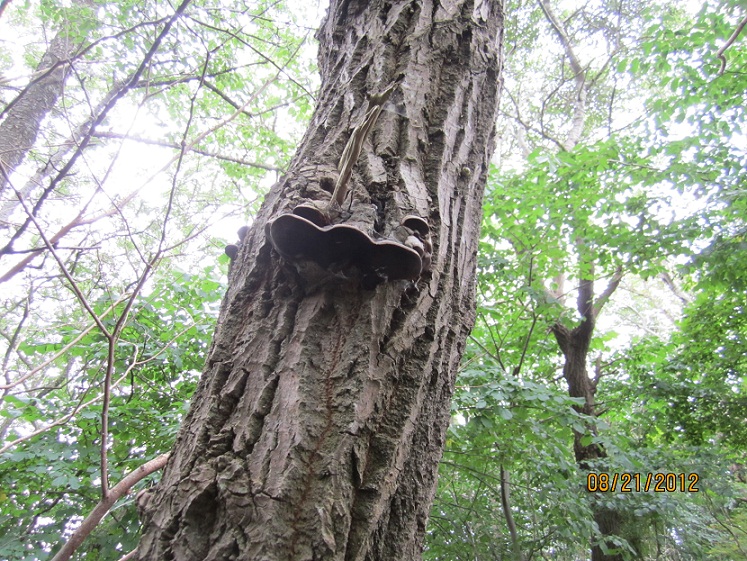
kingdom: Fungi
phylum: Basidiomycota
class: Agaricomycetes
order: Hymenochaetales
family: Hymenochaetaceae
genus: Phellinus
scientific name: Phellinus tremulae
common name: aspe-ildporesvamp
